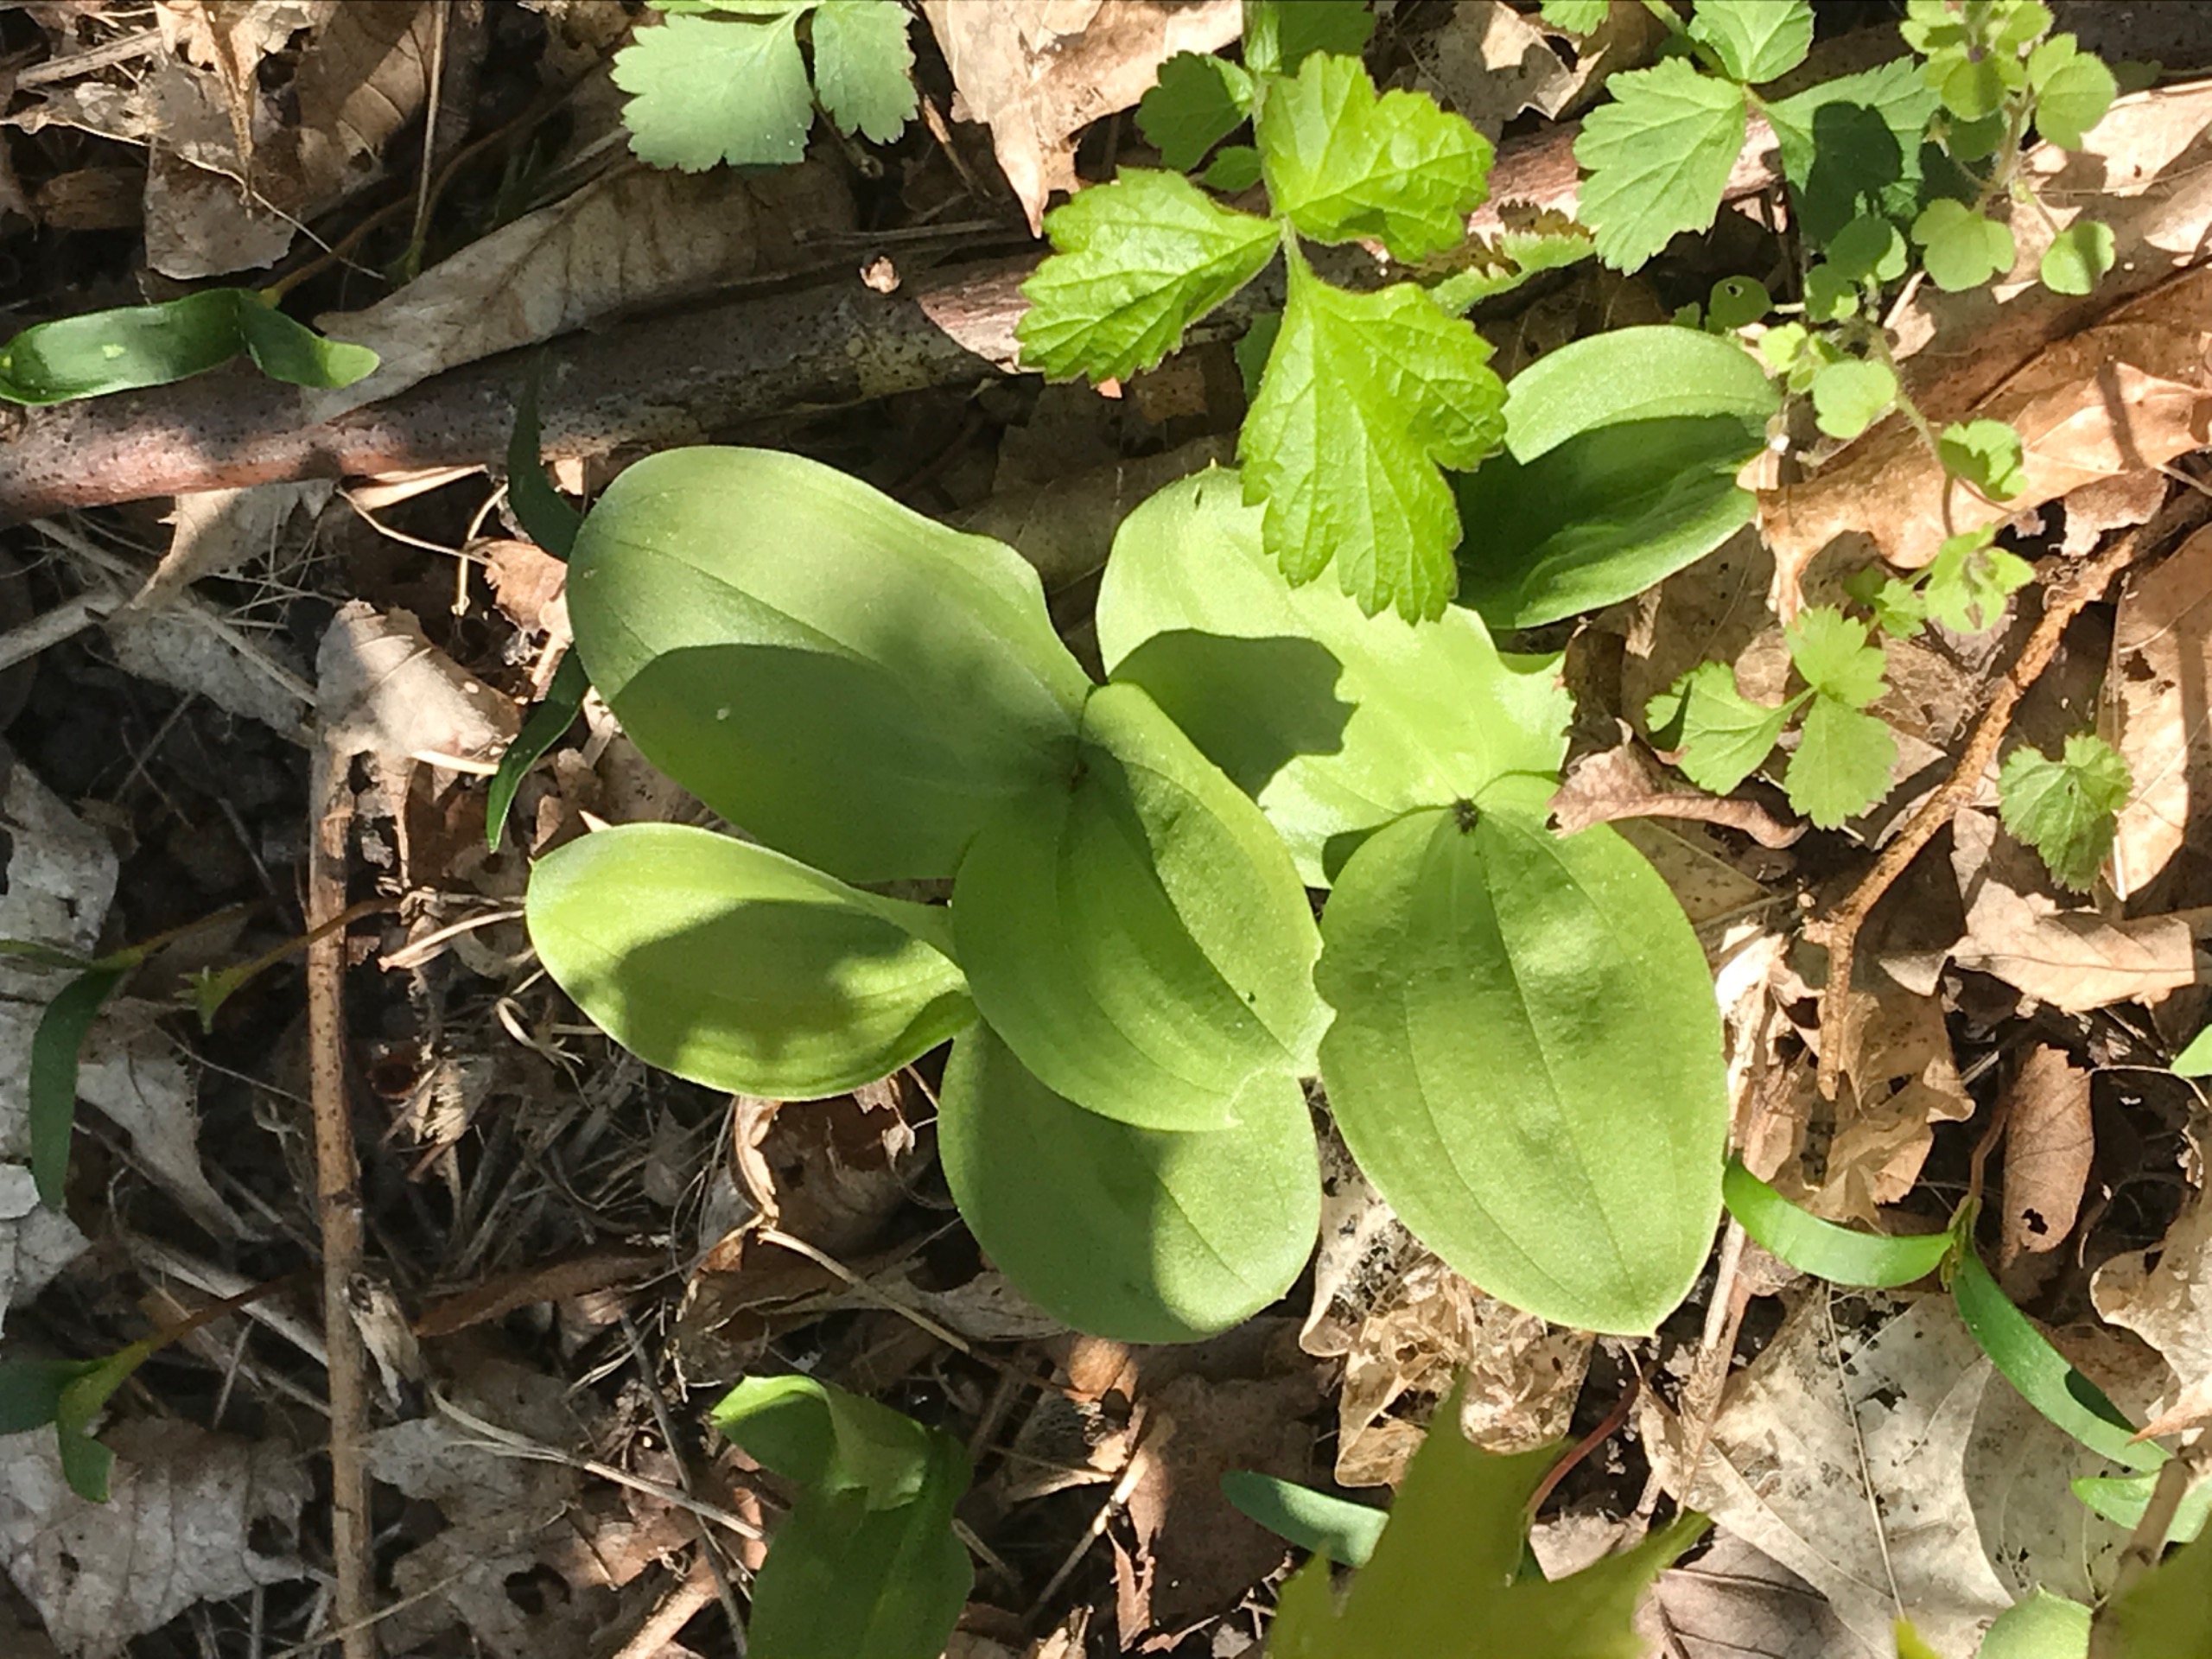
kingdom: Plantae
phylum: Tracheophyta
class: Liliopsida
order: Asparagales
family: Orchidaceae
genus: Neottia
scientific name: Neottia ovata
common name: Ægbladet fliglæbe
